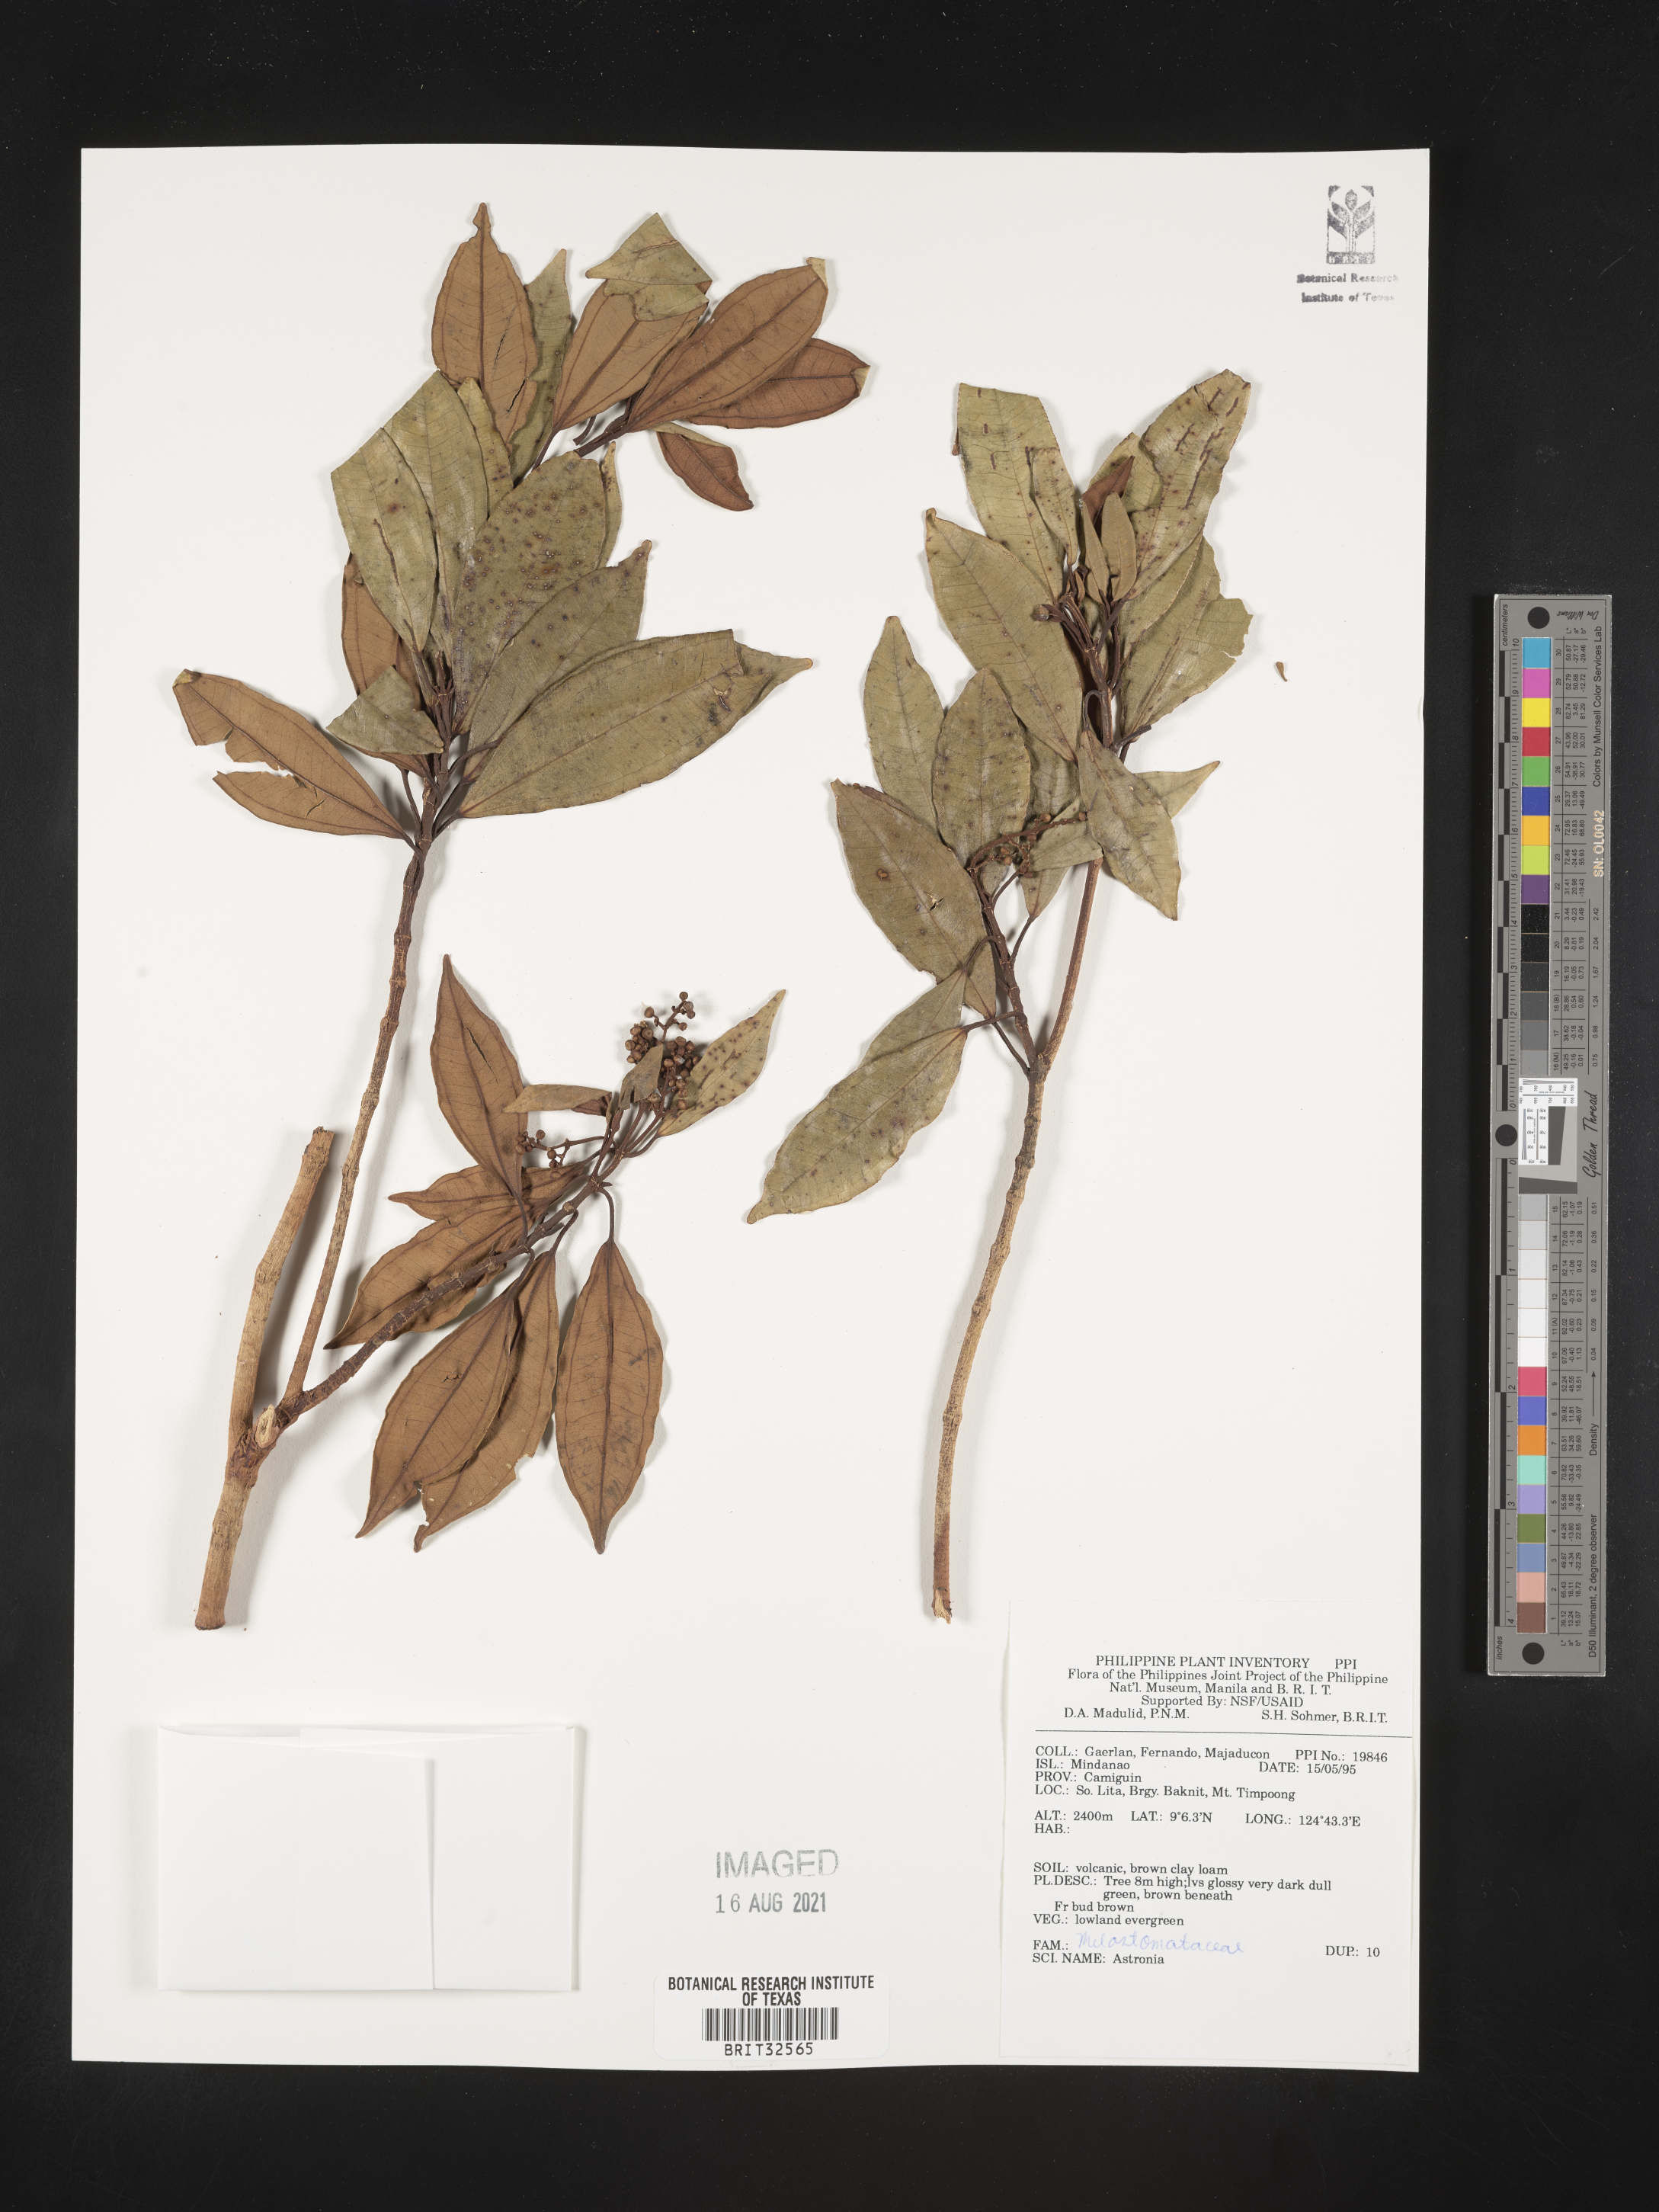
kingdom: Plantae
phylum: Tracheophyta
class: Magnoliopsida
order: Myrtales
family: Melastomataceae
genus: Astronia
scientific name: Astronia
